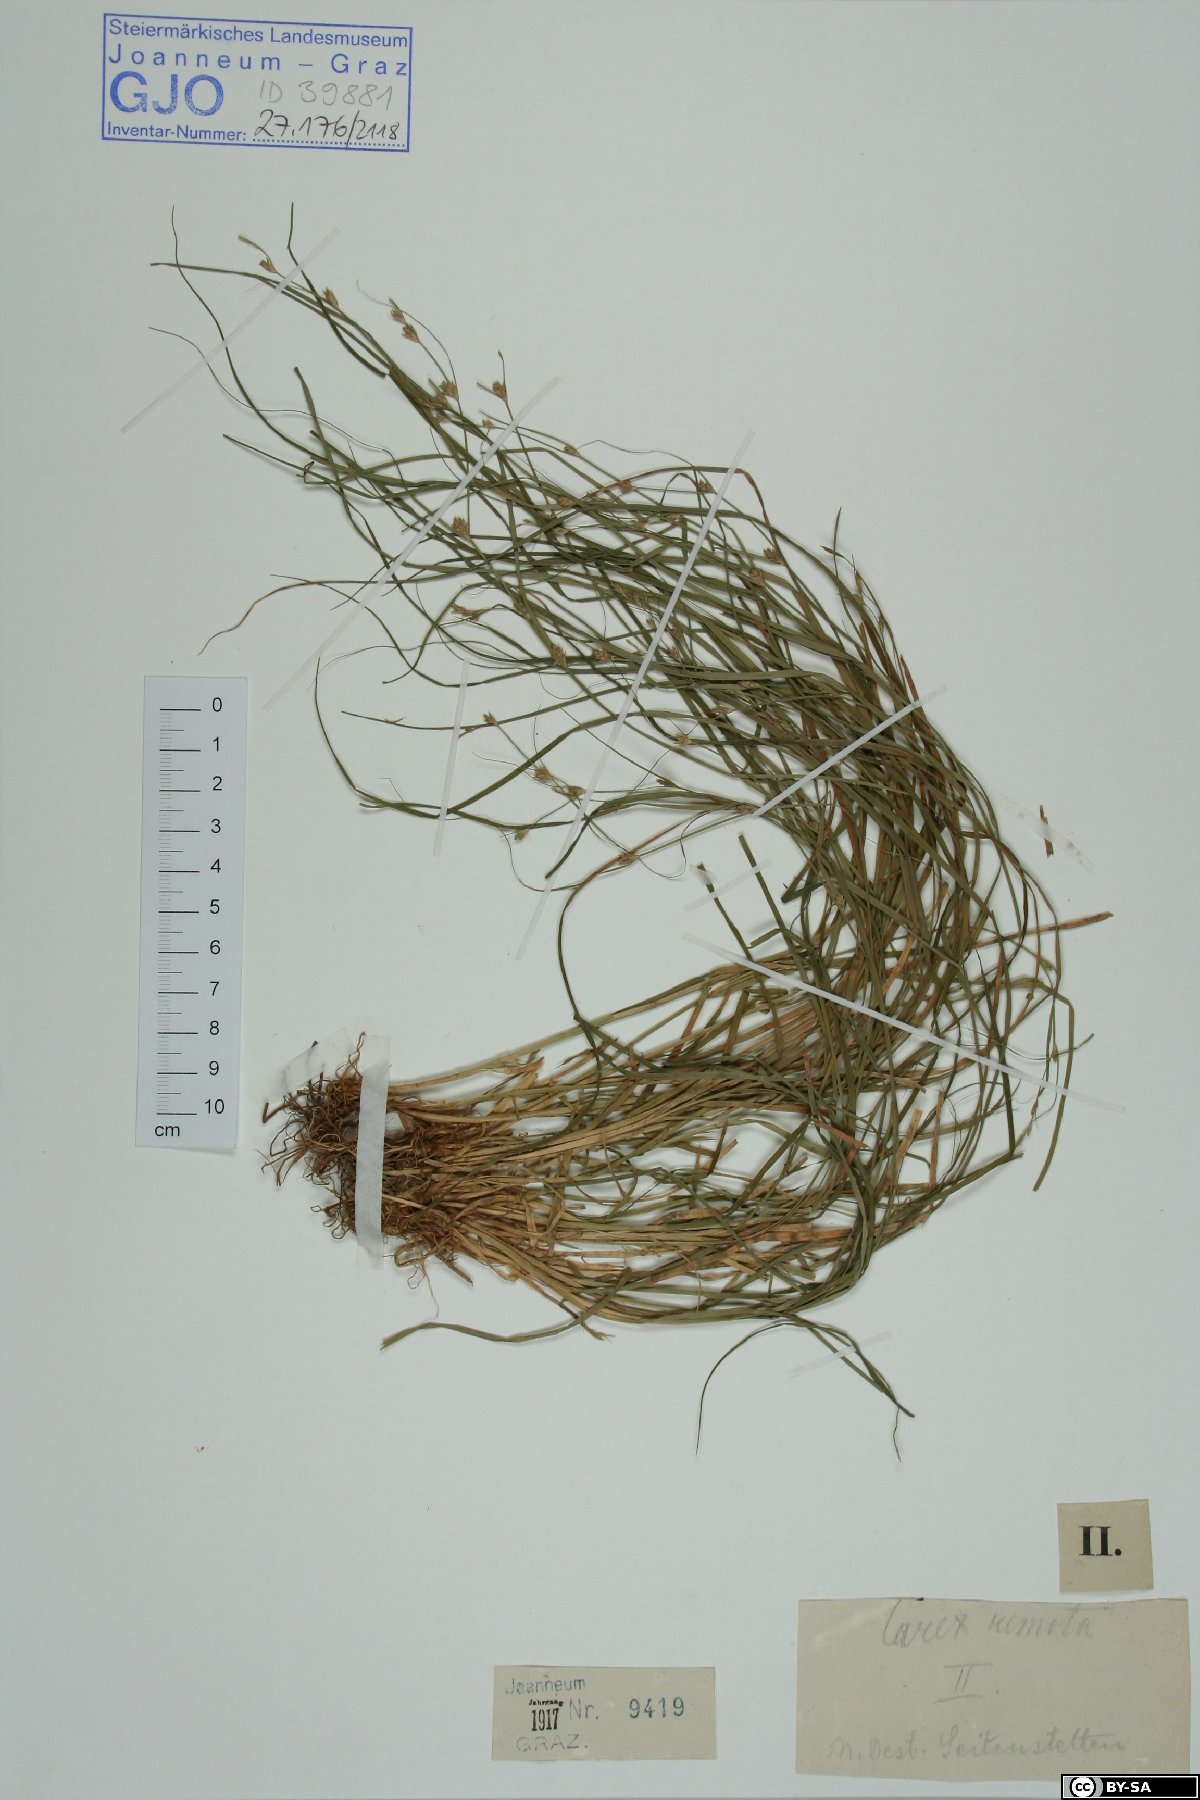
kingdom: Plantae
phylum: Tracheophyta
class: Liliopsida
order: Poales
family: Cyperaceae
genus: Carex
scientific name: Carex remota
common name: Remote sedge
